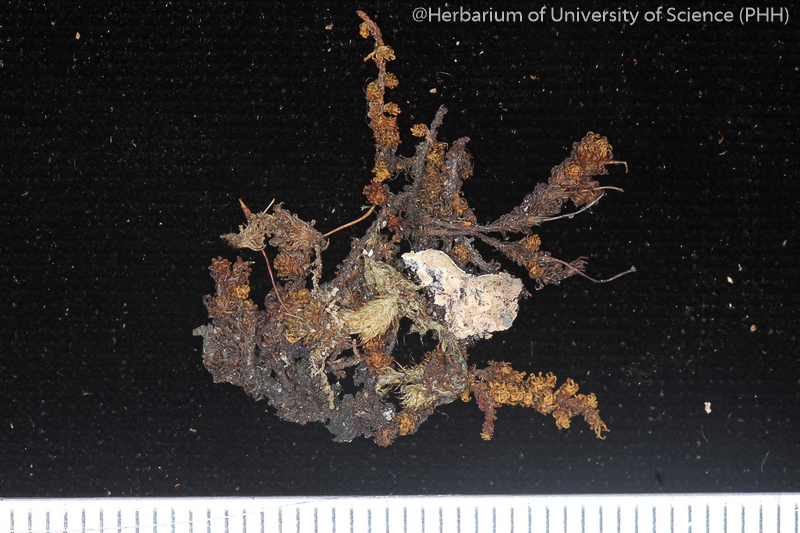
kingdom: Plantae
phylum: Bryophyta
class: Bryopsida
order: Orthotrichales
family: Orthotrichaceae
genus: Macromitrium
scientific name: Macromitrium ferriei
